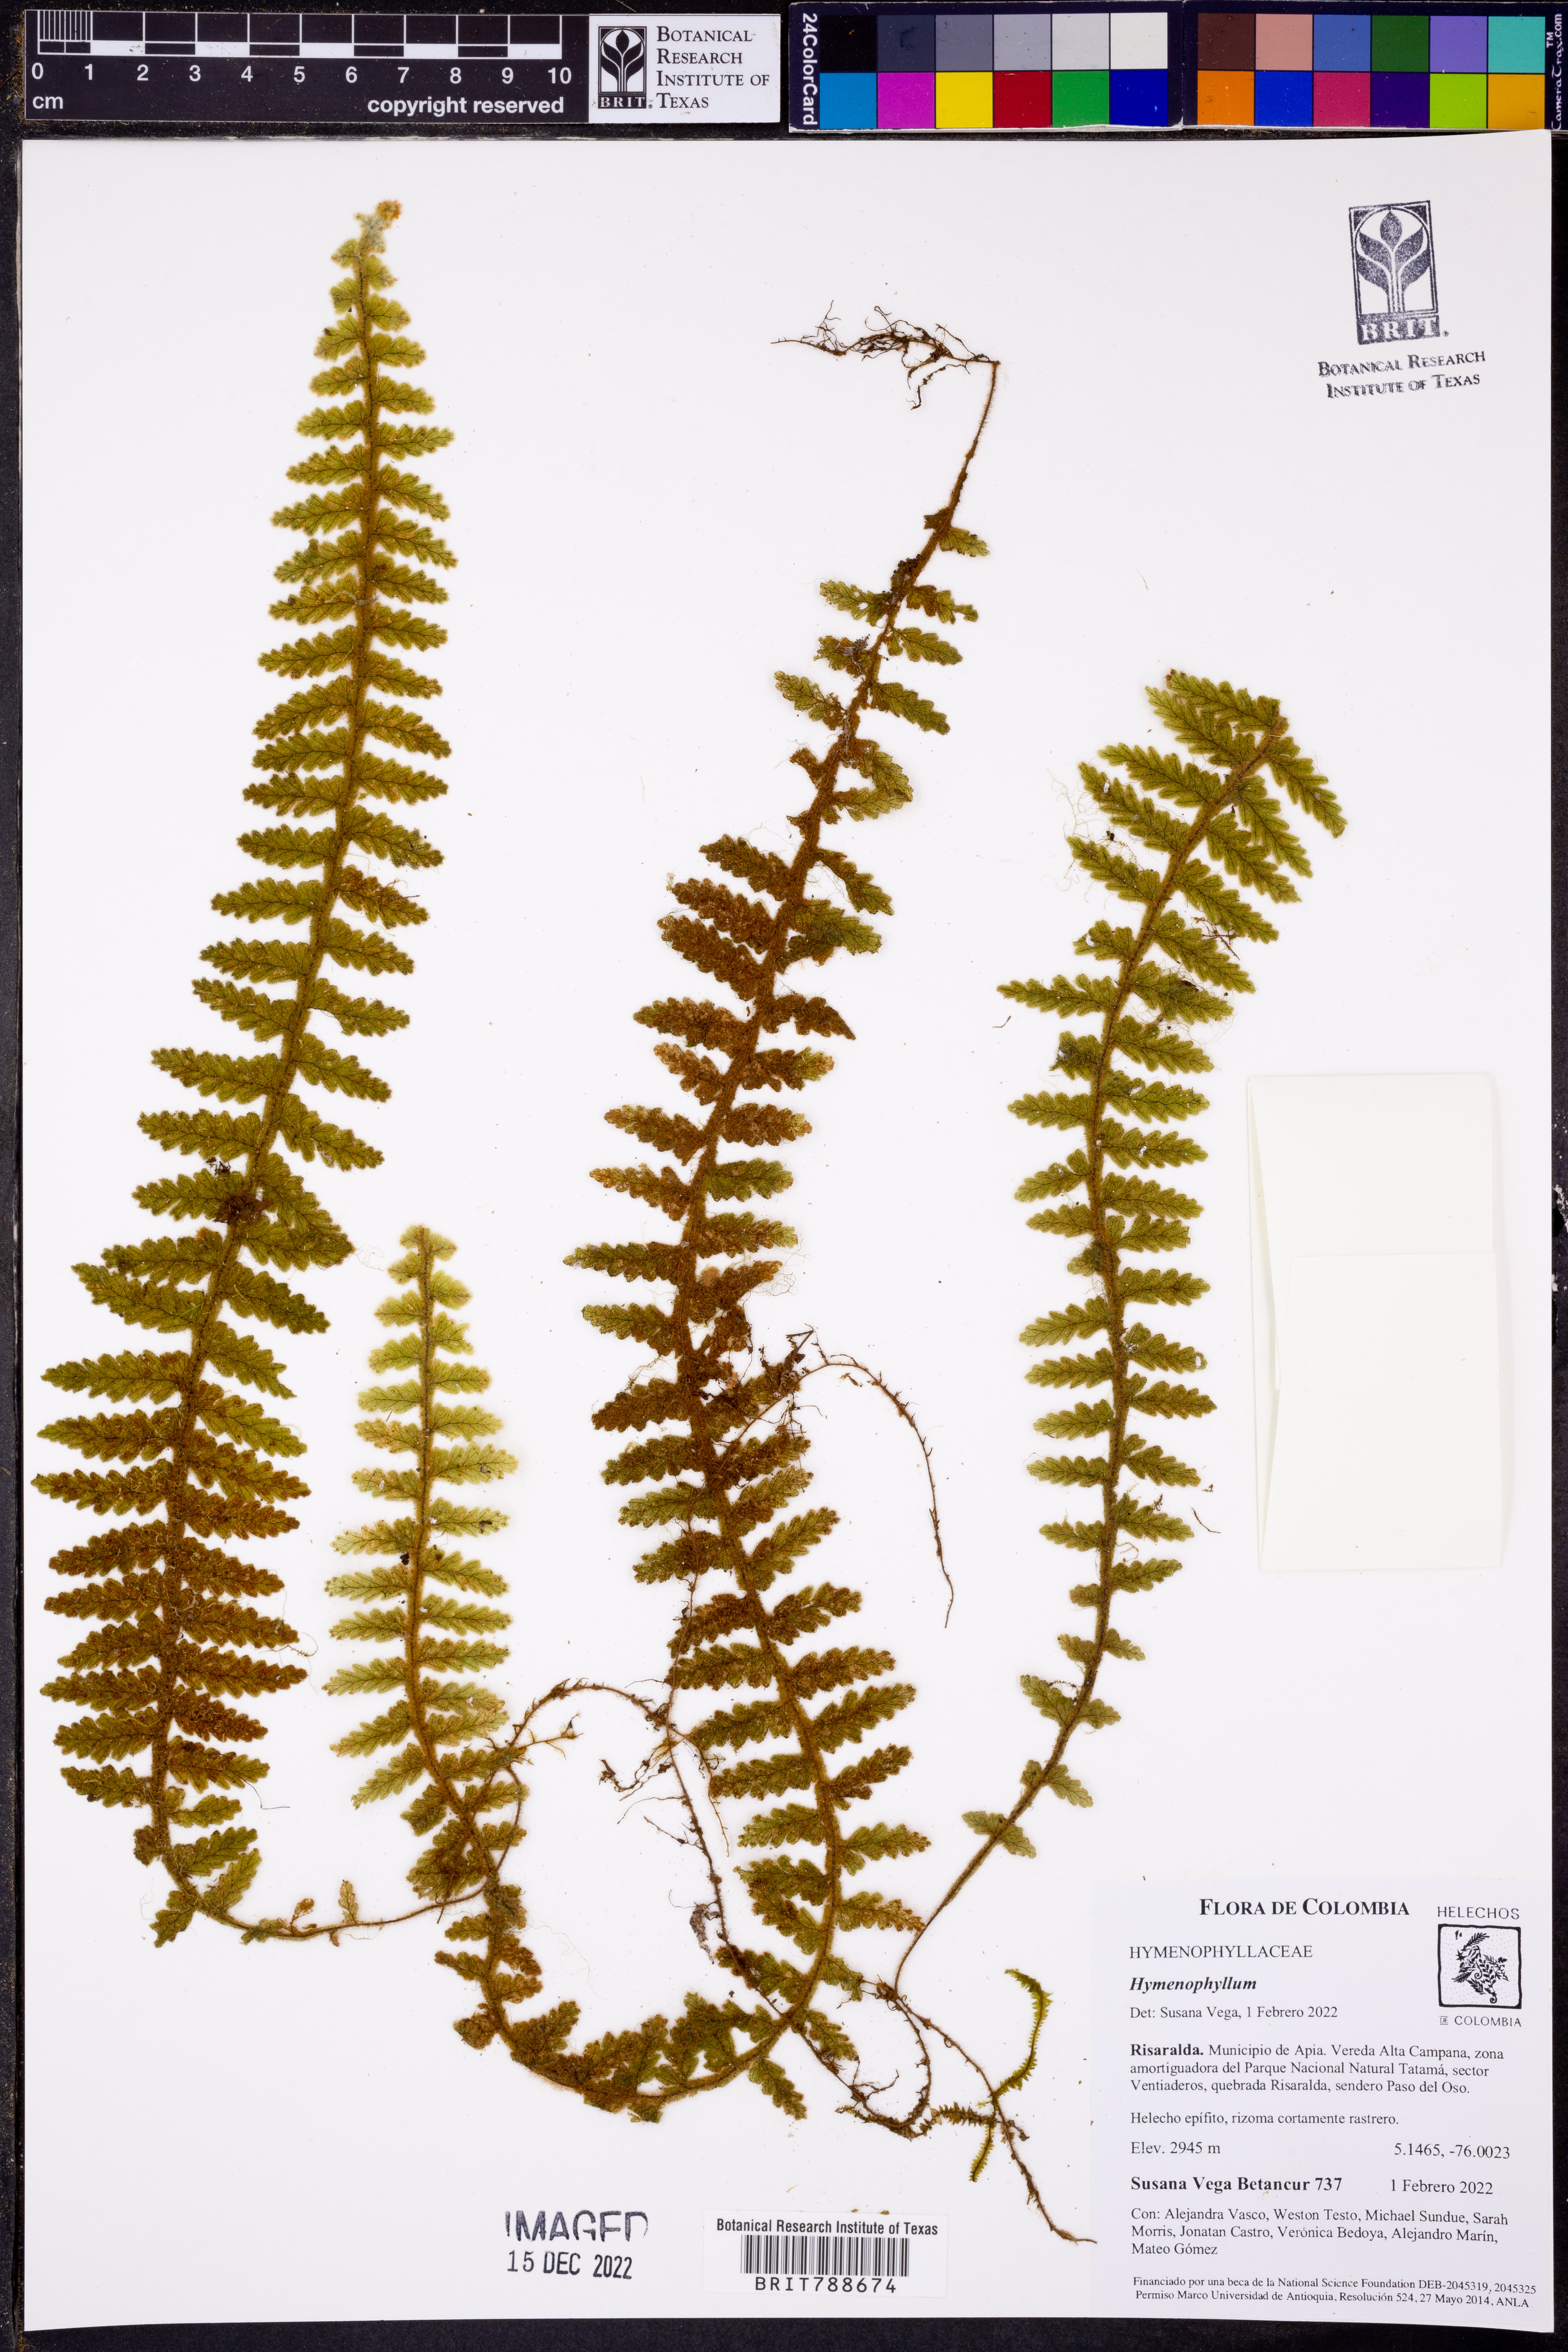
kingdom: Plantae
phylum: Tracheophyta
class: Polypodiopsida
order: Hymenophyllales
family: Hymenophyllaceae
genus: Hymenophyllum
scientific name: Hymenophyllum dependens
